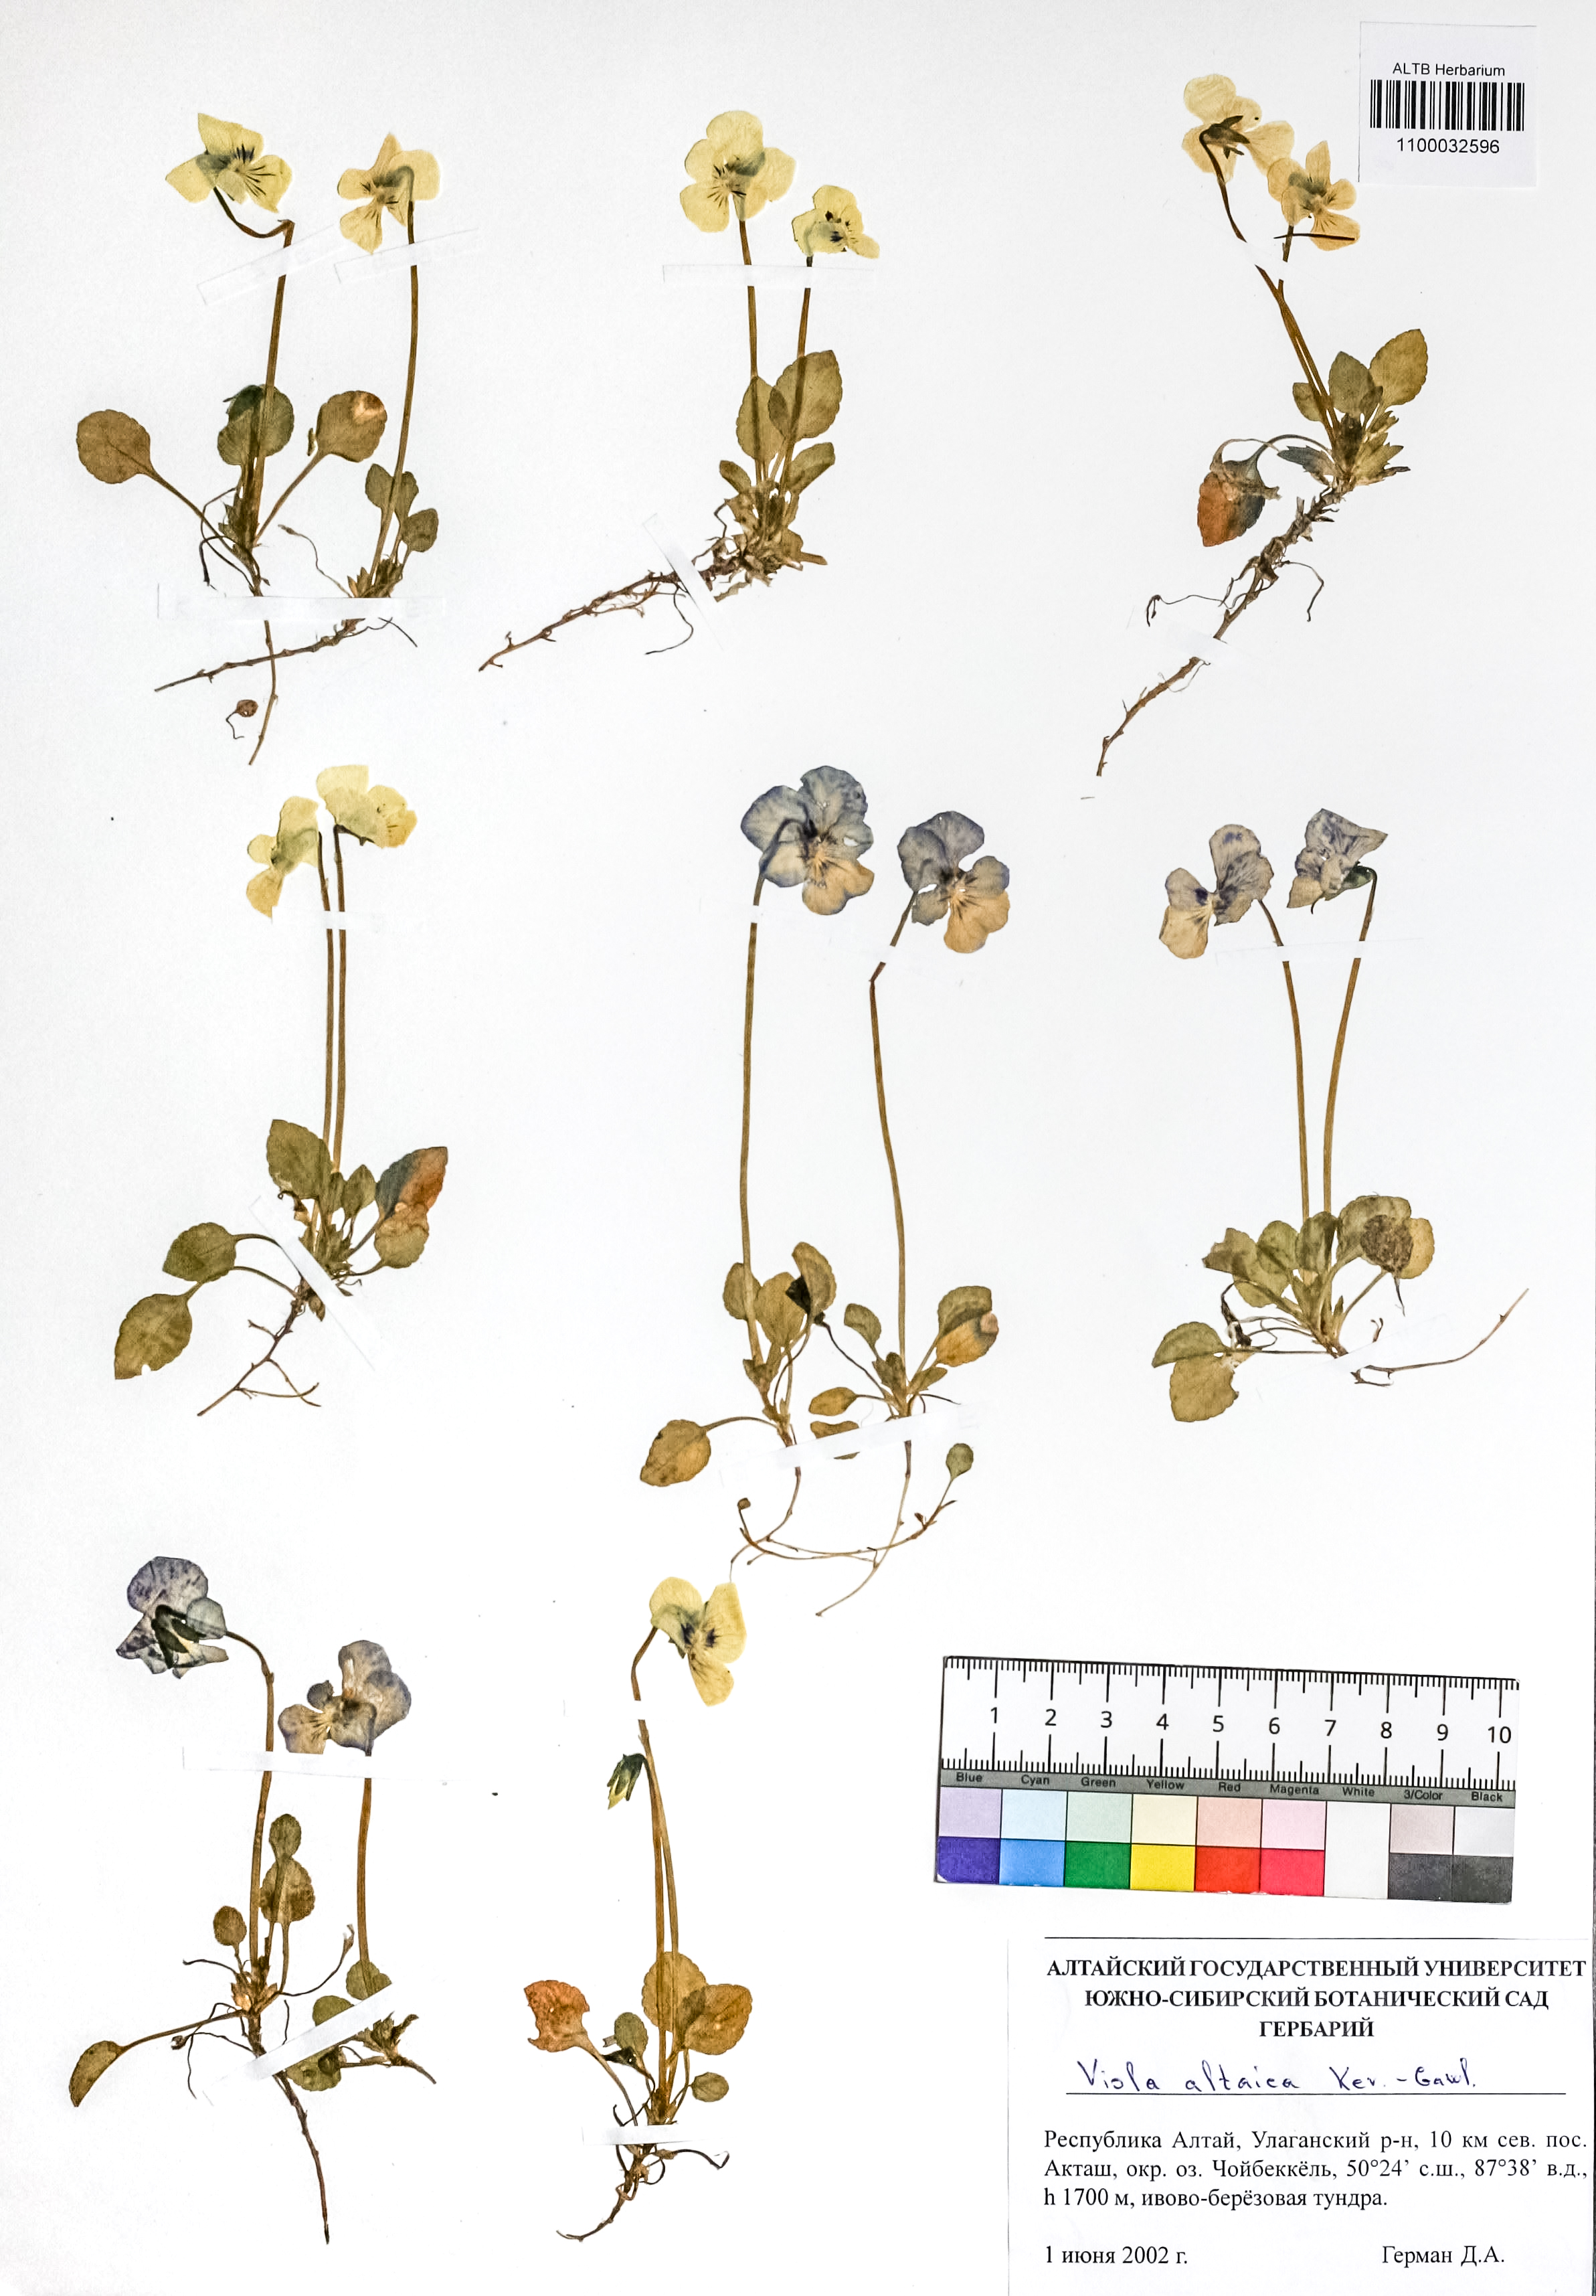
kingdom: Plantae
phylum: Tracheophyta
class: Magnoliopsida
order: Malpighiales
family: Violaceae
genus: Viola
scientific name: Viola altaica
